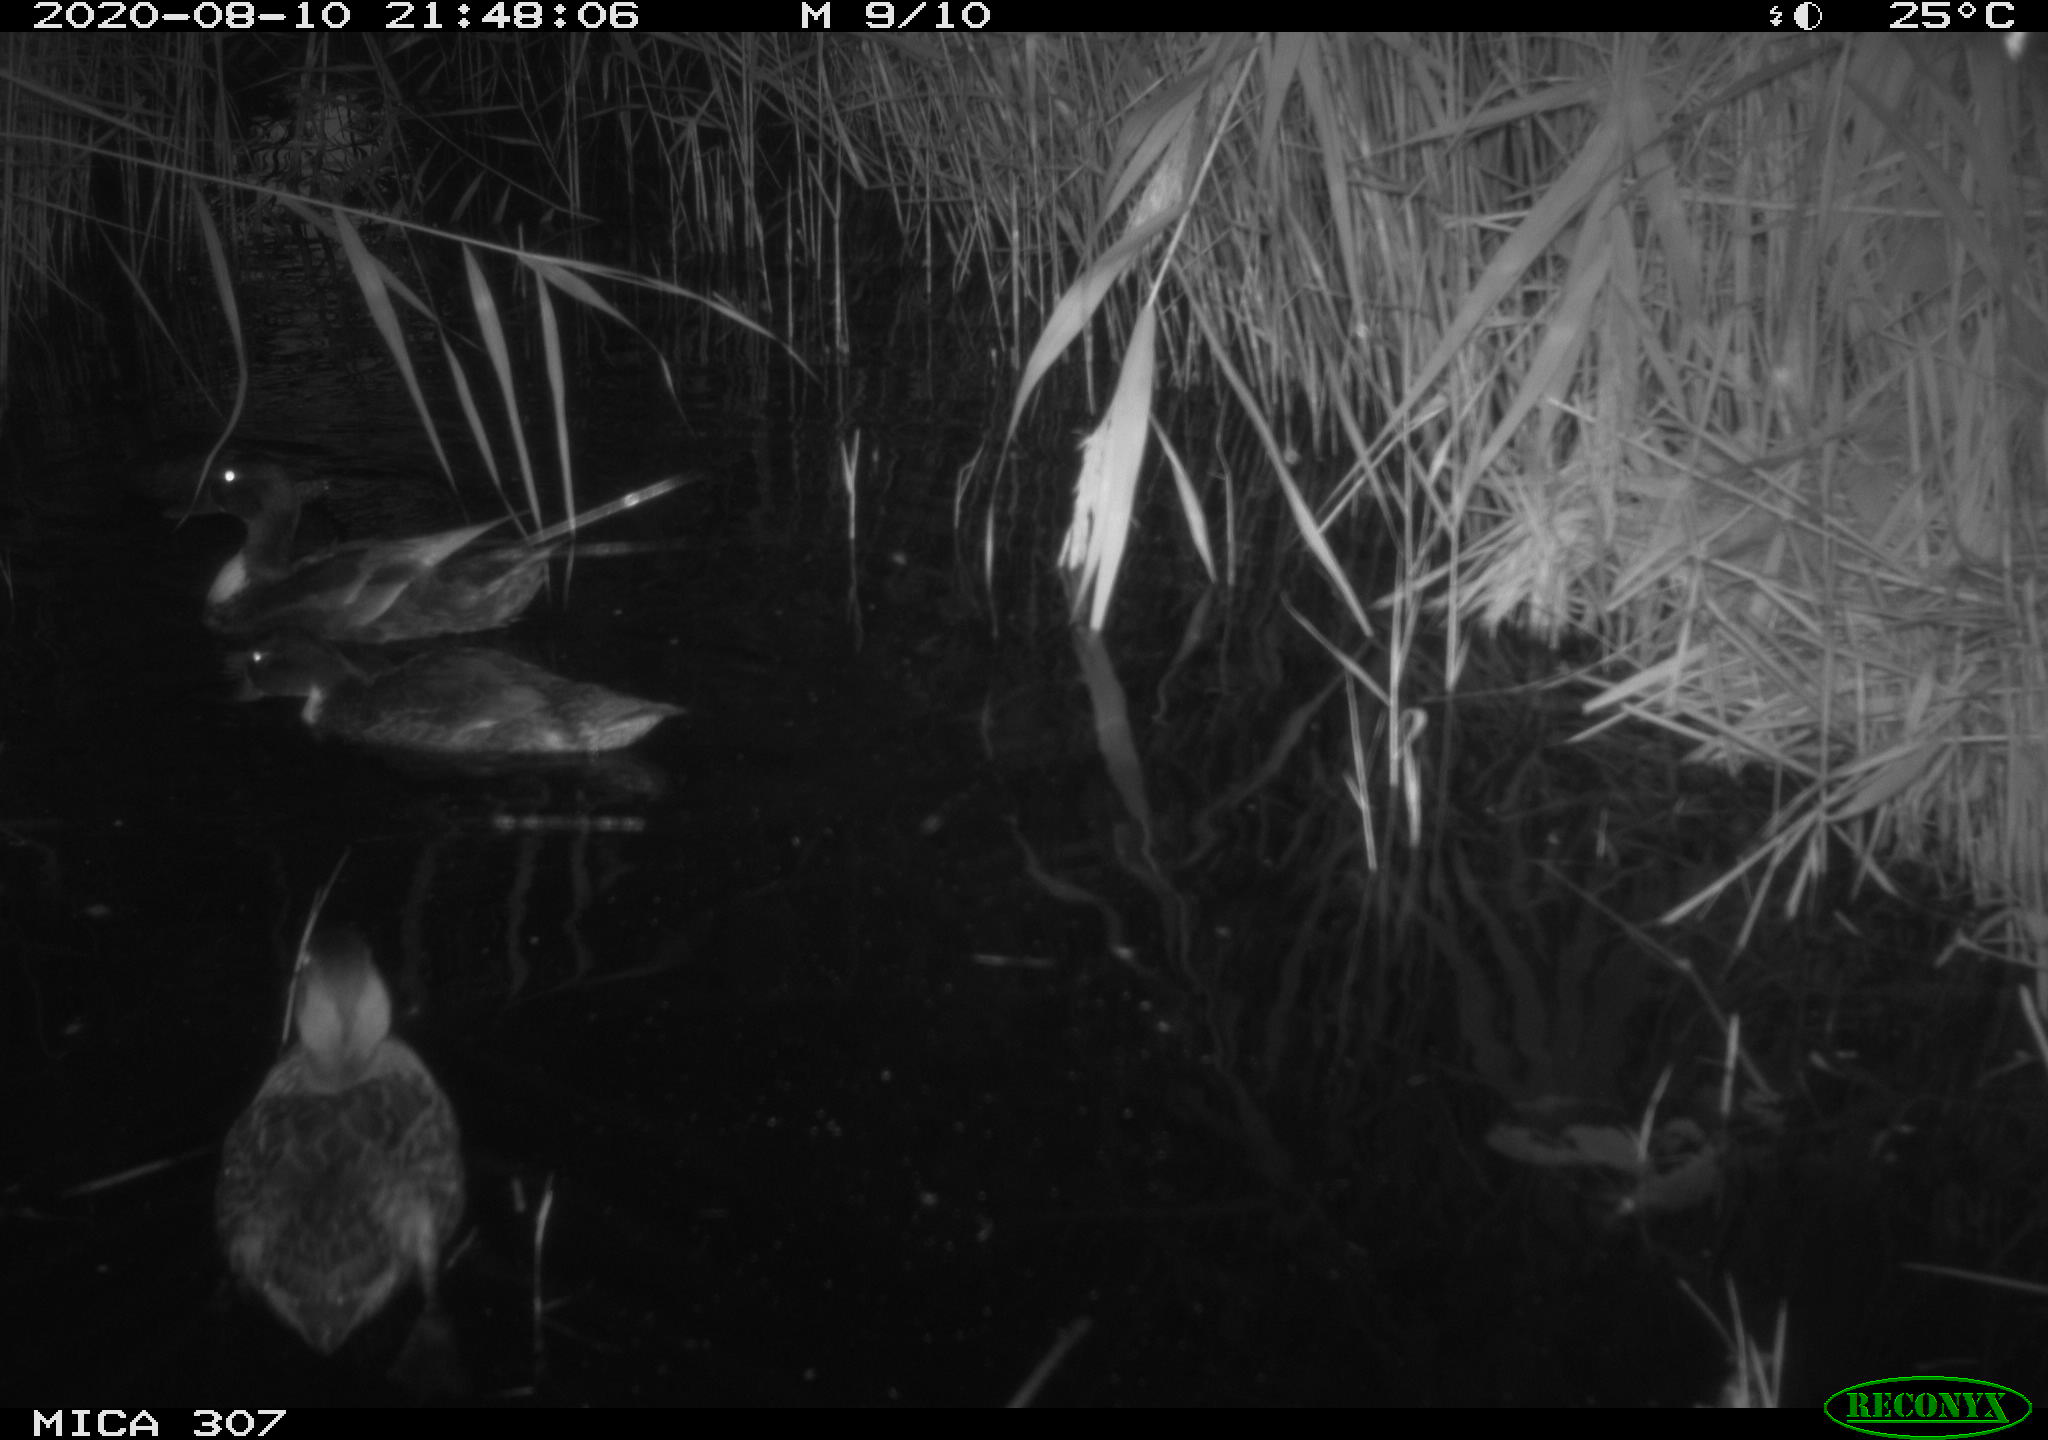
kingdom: Animalia
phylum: Chordata
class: Aves
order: Anseriformes
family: Anatidae
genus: Anas
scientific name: Anas platyrhynchos
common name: Mallard
